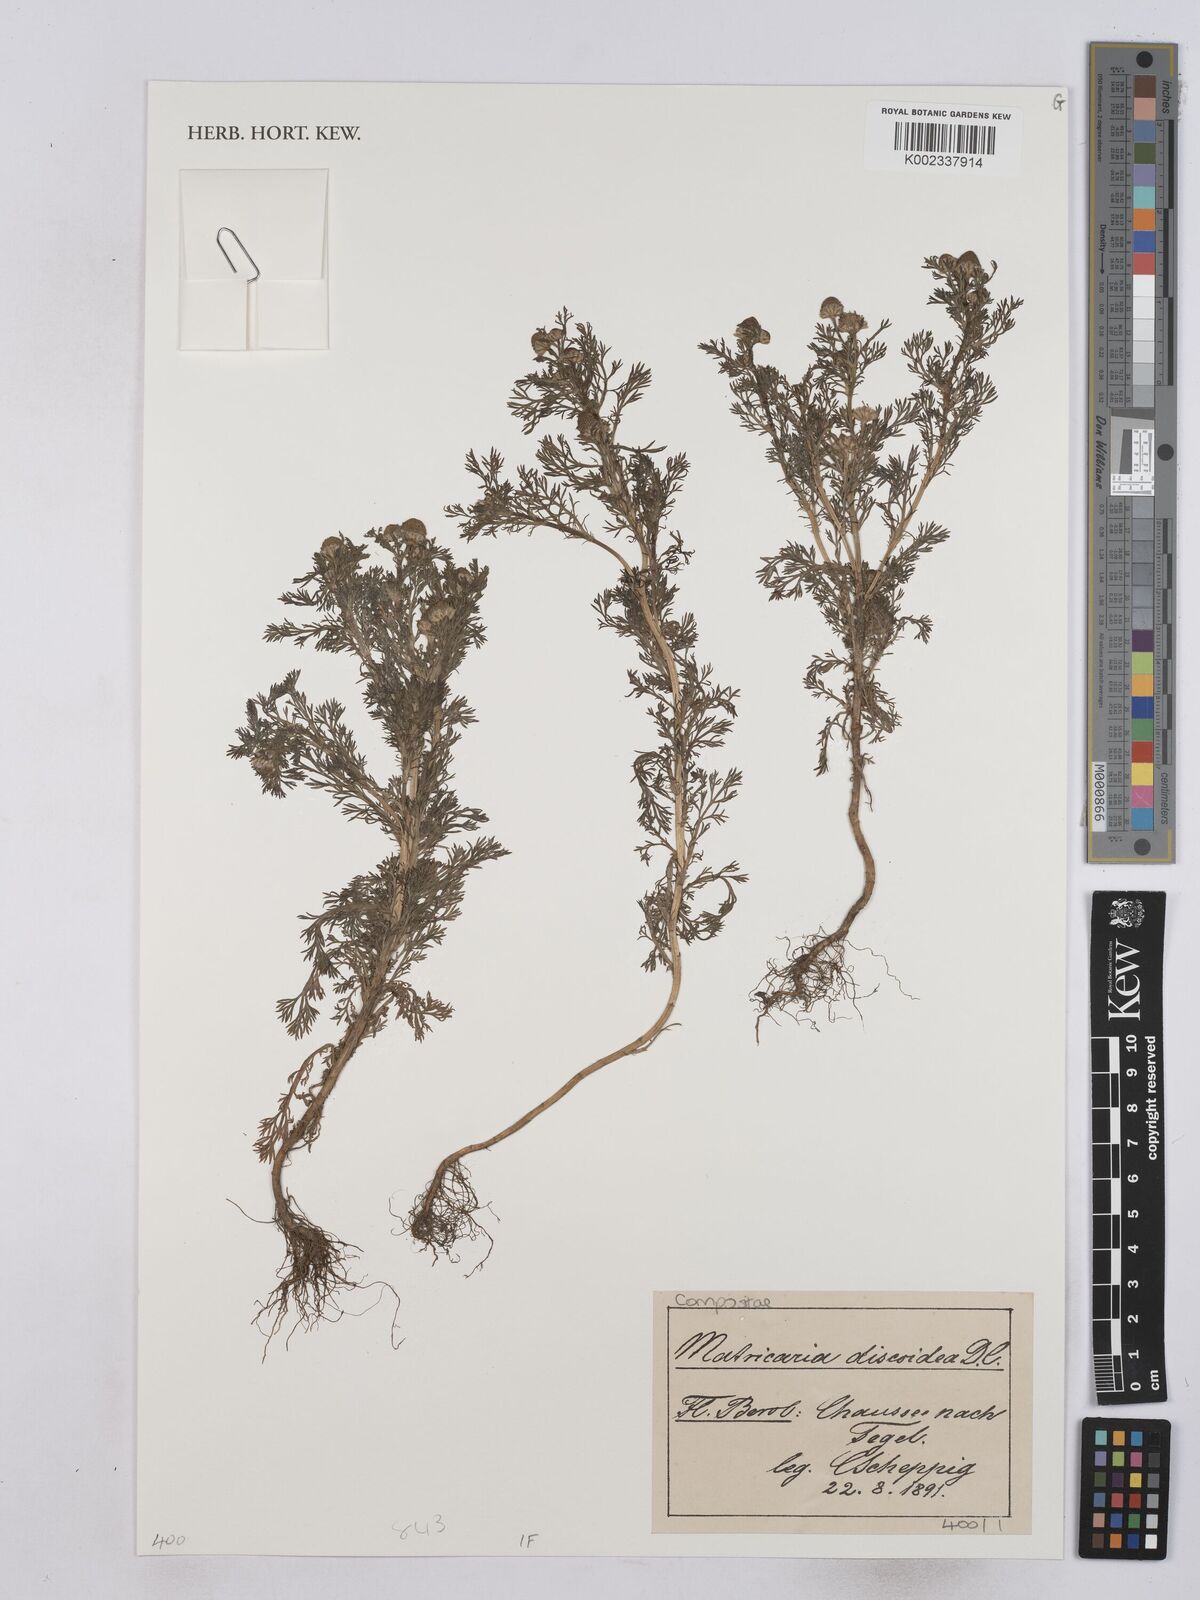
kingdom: Plantae
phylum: Tracheophyta
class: Magnoliopsida
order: Asterales
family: Asteraceae
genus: Matricaria
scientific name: Matricaria occidentalis
